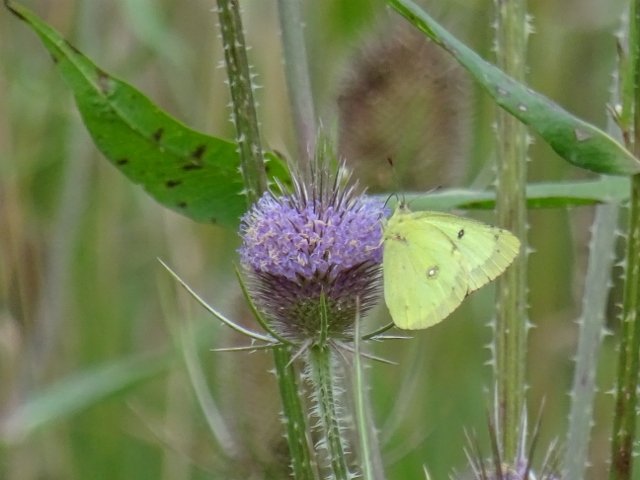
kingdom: Animalia
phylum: Arthropoda
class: Insecta
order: Lepidoptera
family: Pieridae
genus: Colias
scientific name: Colias philodice
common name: Clouded Sulphur
